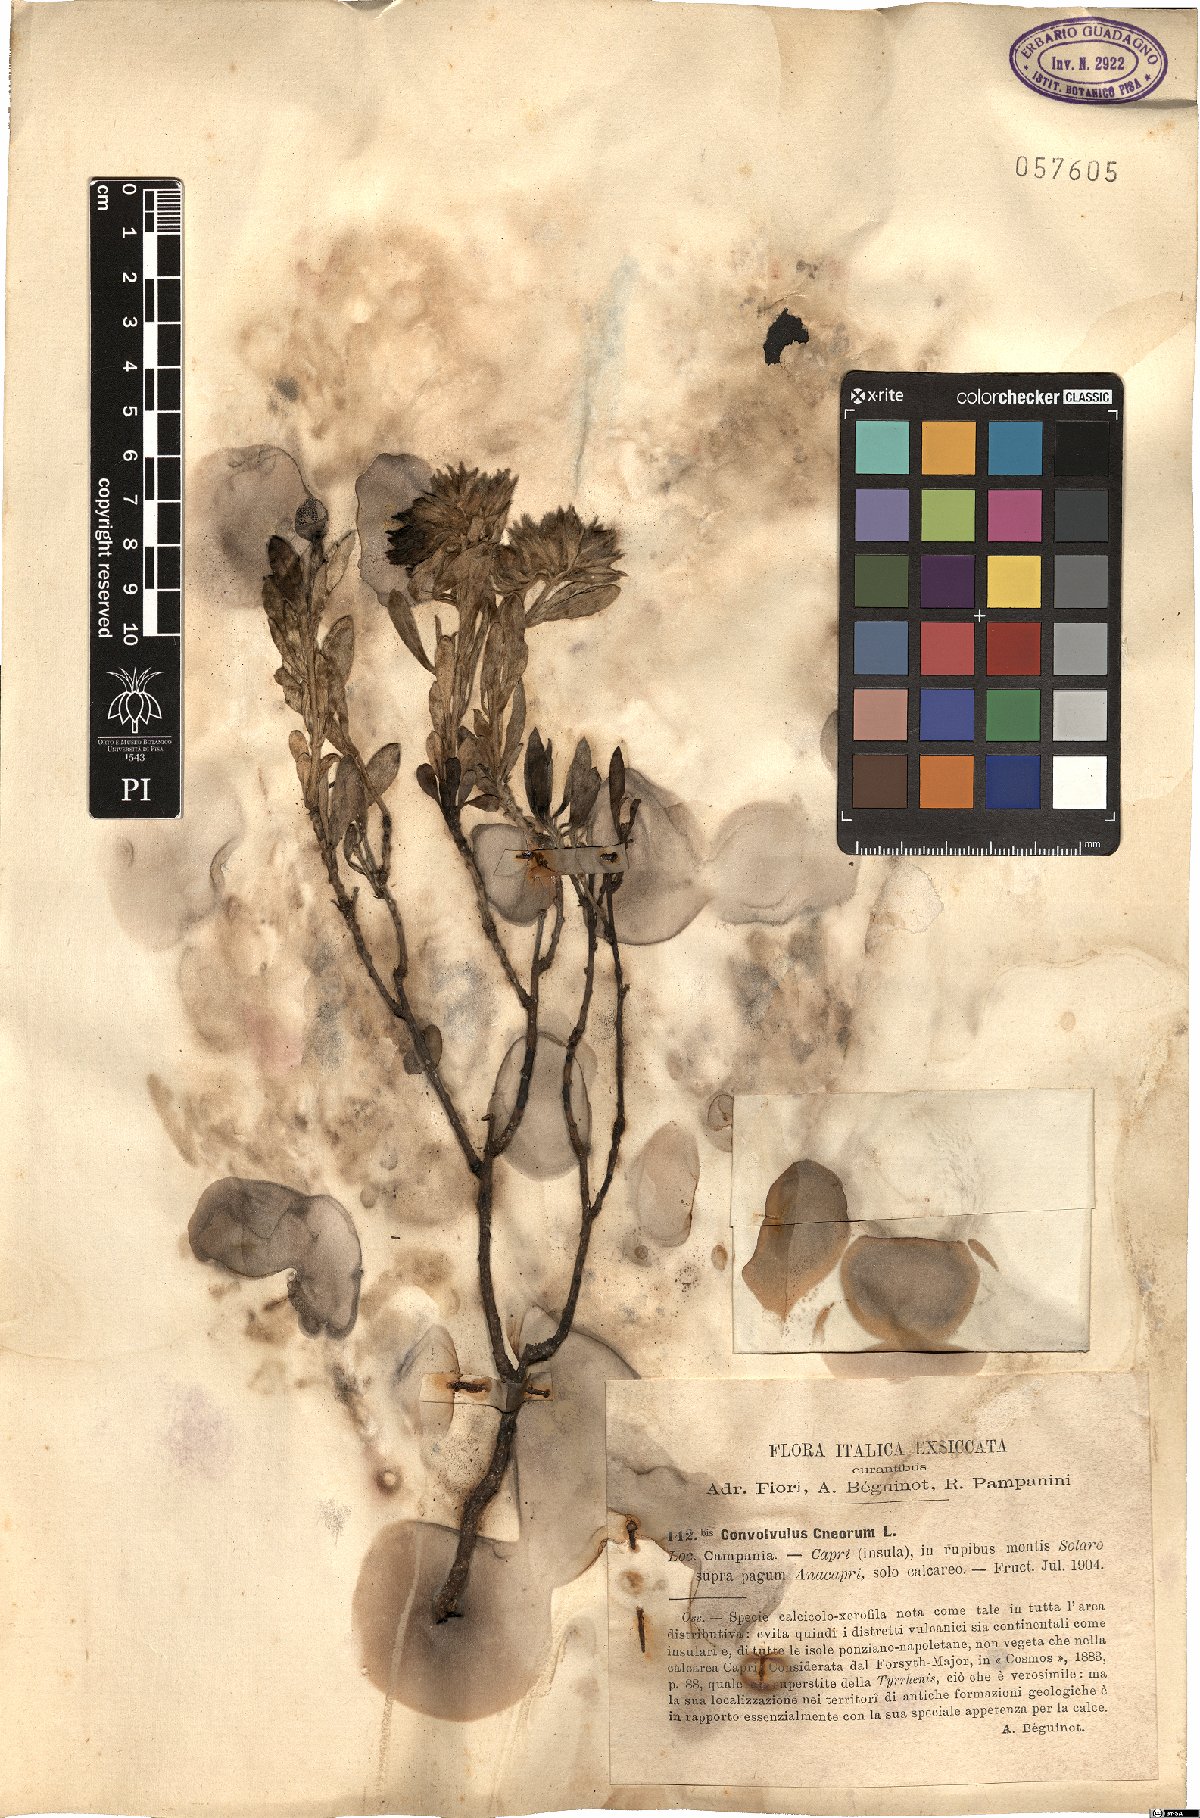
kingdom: Plantae
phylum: Tracheophyta
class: Magnoliopsida
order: Solanales
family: Convolvulaceae
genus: Convolvulus
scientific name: Convolvulus cneorum
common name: Silverbush
